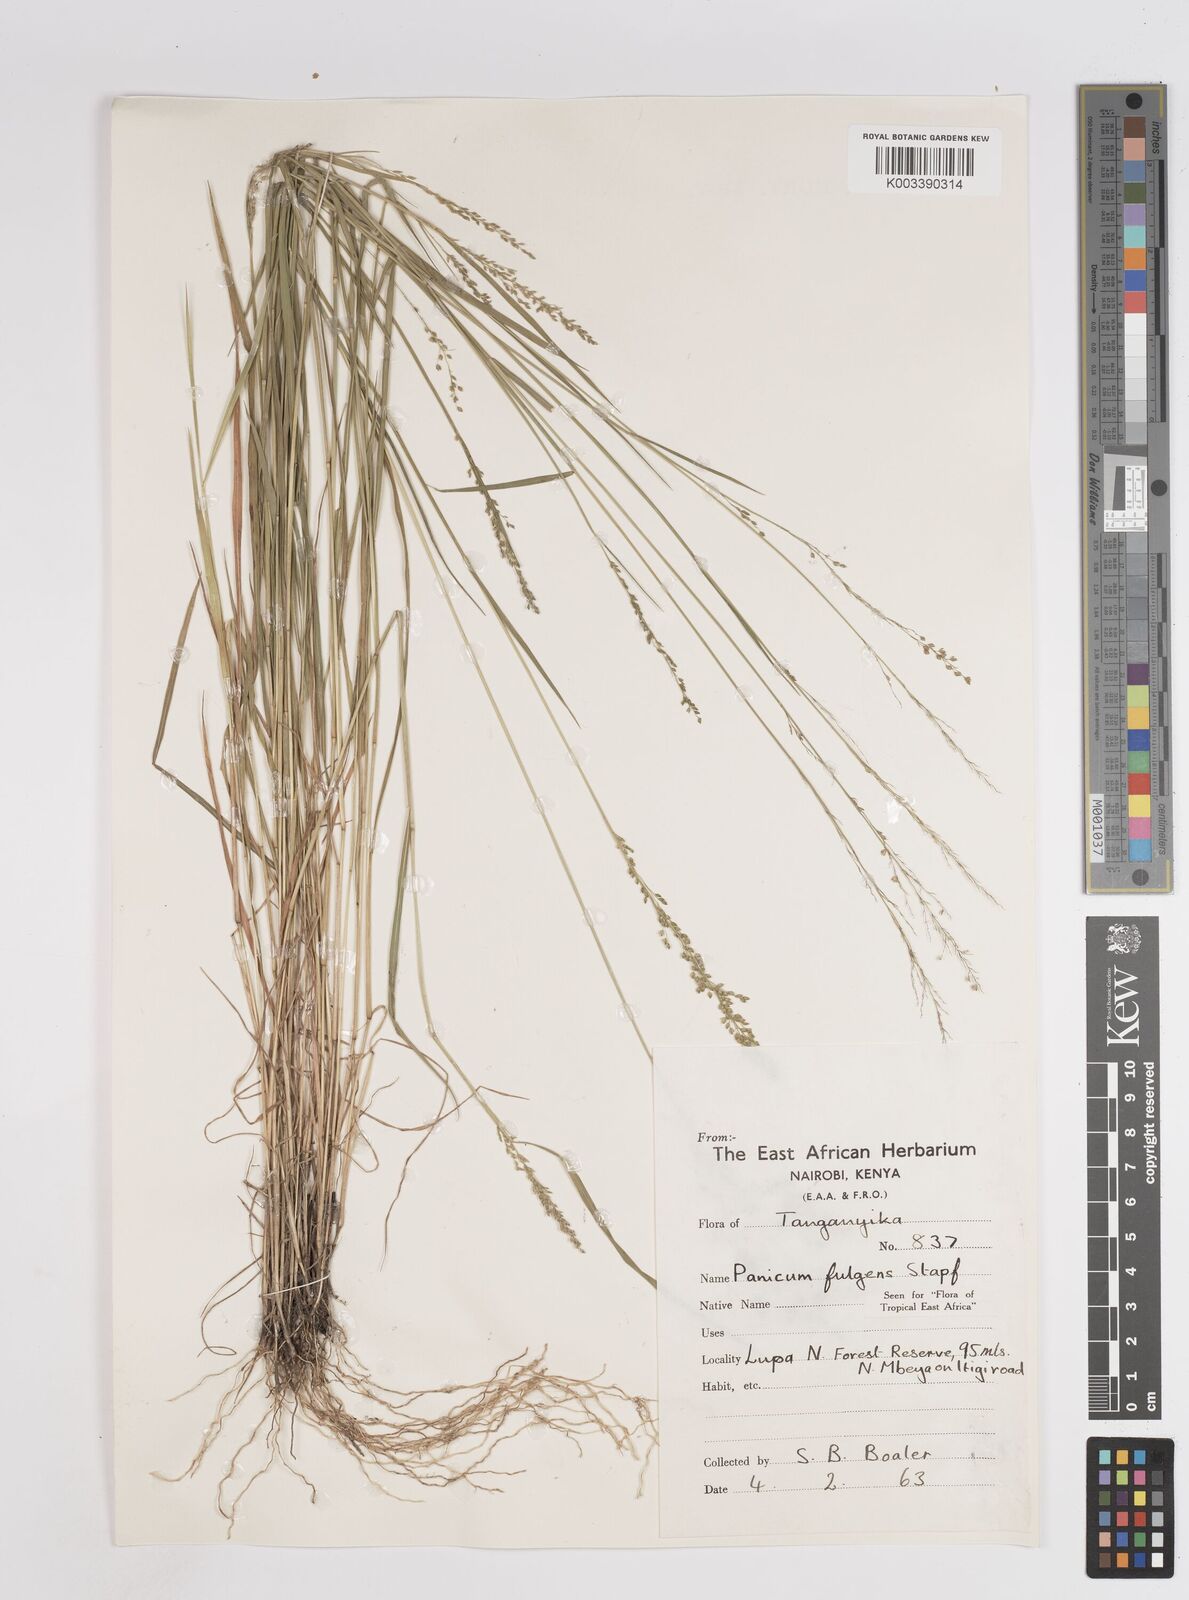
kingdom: Plantae
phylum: Tracheophyta
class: Liliopsida
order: Poales
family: Poaceae
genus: Trichanthecium
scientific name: Trichanthecium nervatum
